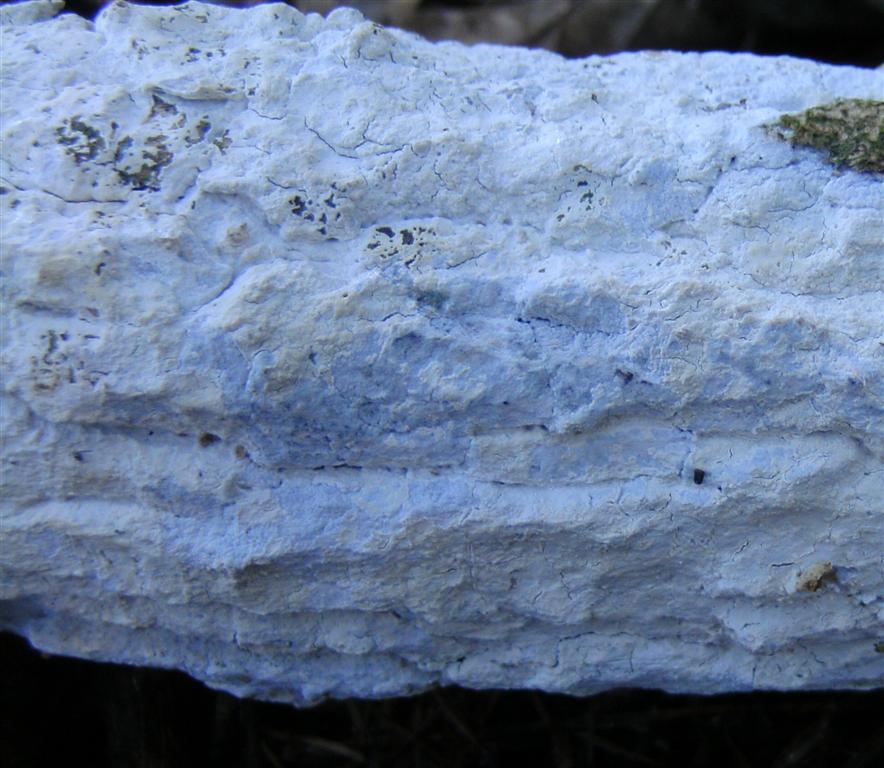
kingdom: Fungi
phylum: Basidiomycota
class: Agaricomycetes
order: Corticiales
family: Corticiaceae
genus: Lyomyces
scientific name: Lyomyces sambuci
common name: almindelig hyldehinde
